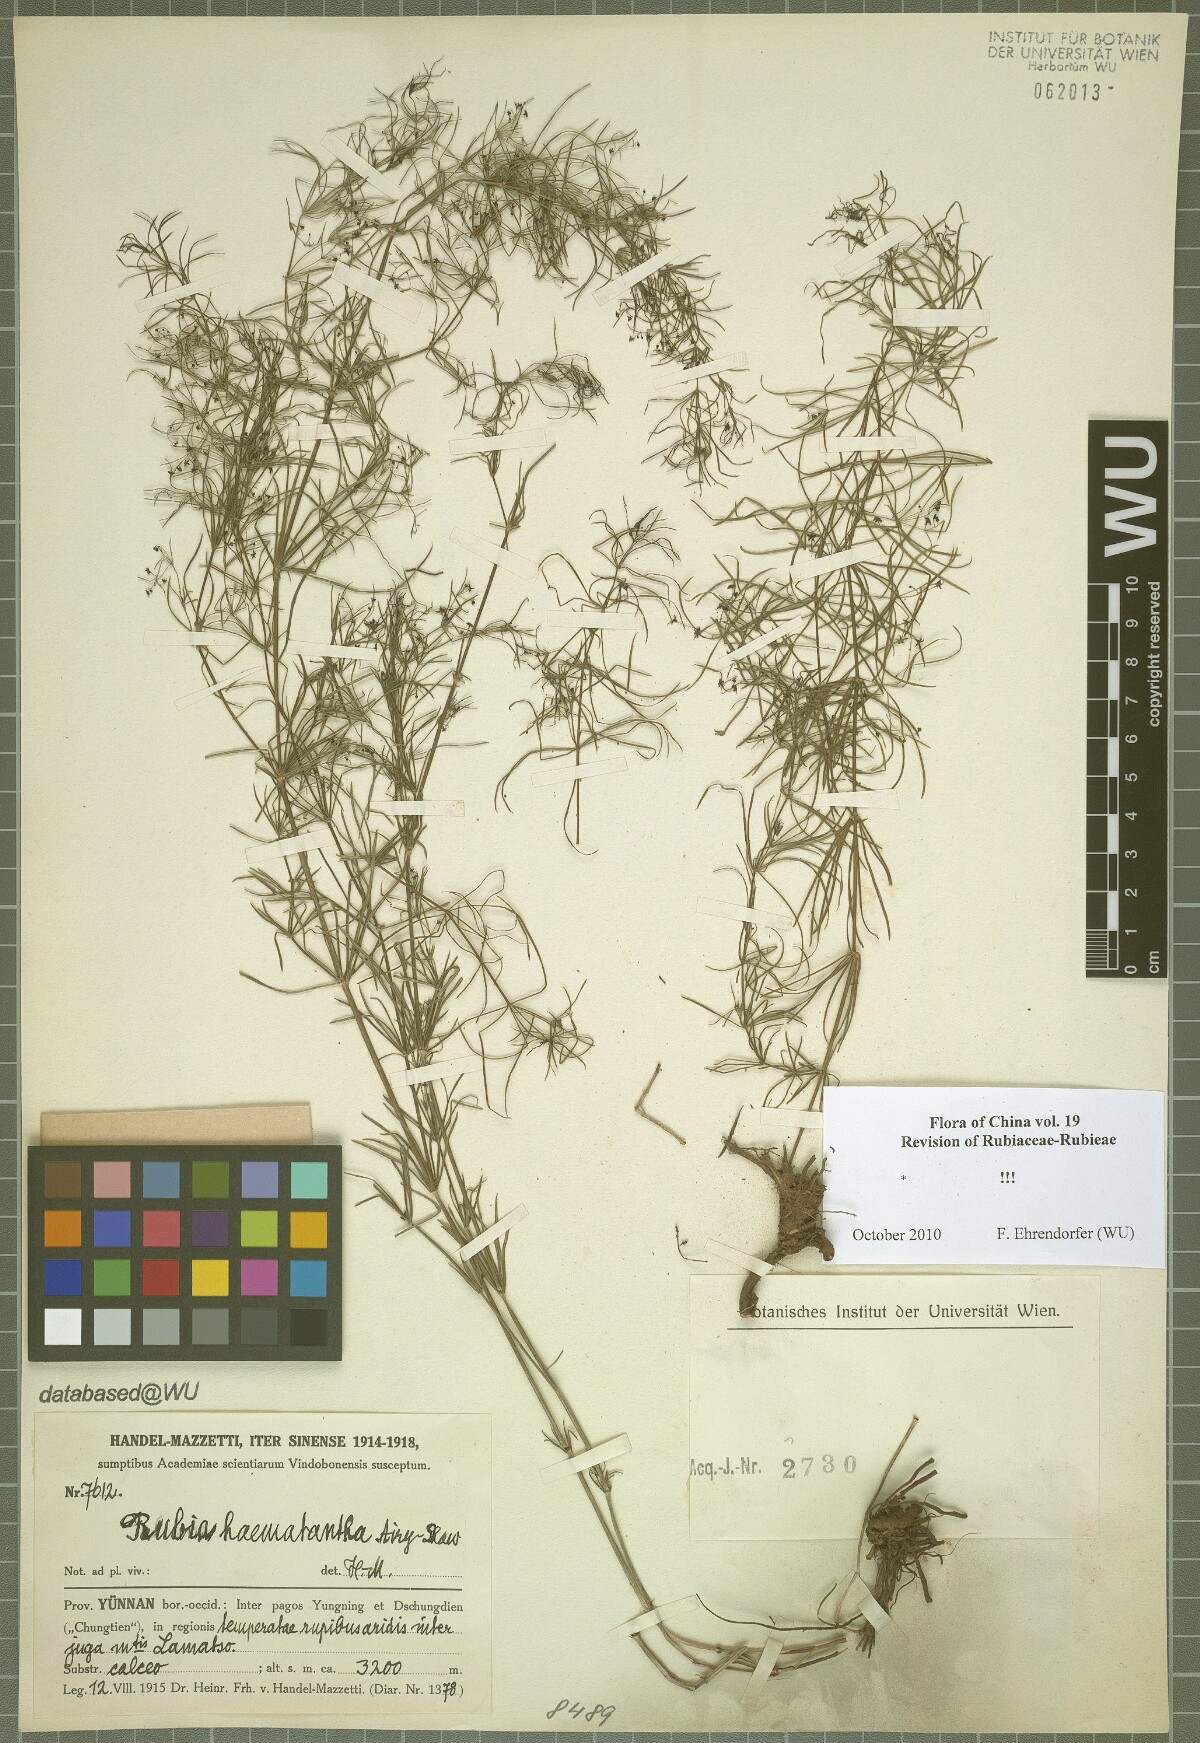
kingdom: Plantae
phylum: Tracheophyta
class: Magnoliopsida
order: Gentianales
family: Rubiaceae
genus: Rubia
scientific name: Rubia haematantha
